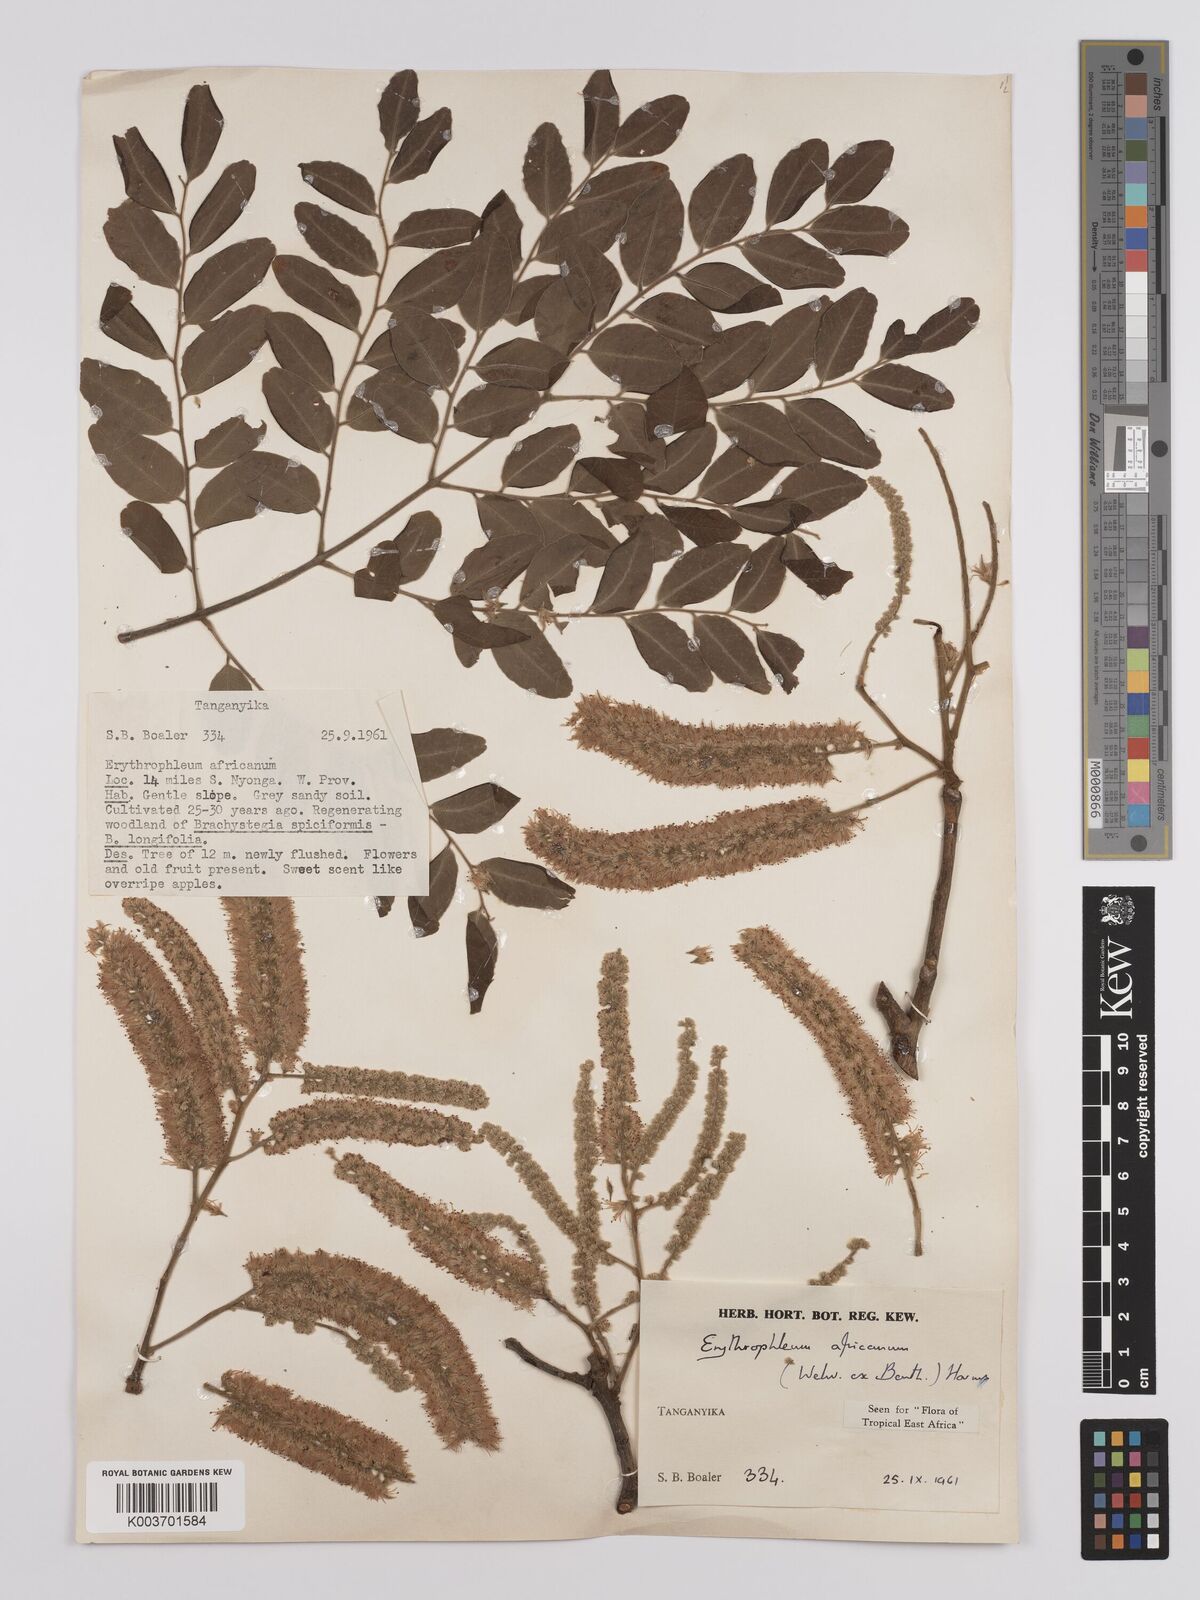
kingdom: Plantae
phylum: Tracheophyta
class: Magnoliopsida
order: Fabales
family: Fabaceae
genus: Erythrophleum
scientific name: Erythrophleum africanum
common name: African blackwood
